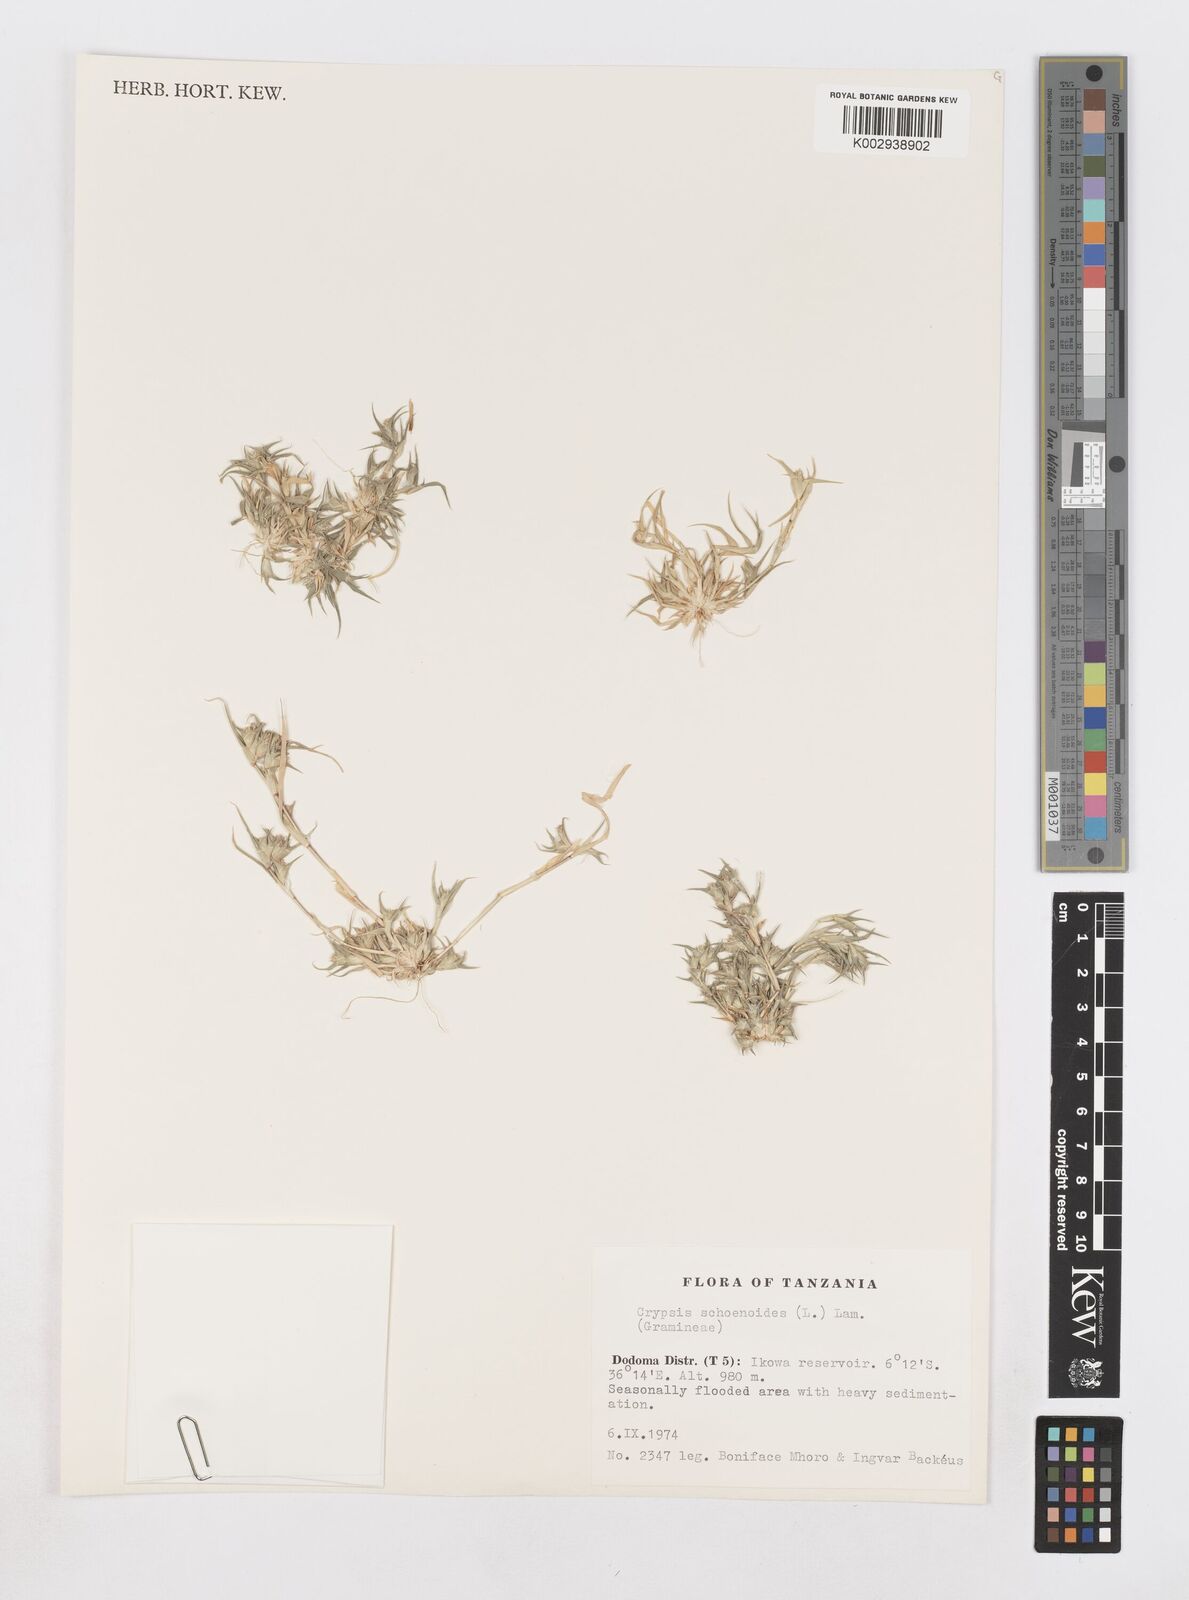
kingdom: Animalia
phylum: Arthropoda
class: Insecta
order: Coleoptera
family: Tenebrionidae
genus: Crypsis
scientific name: Crypsis
